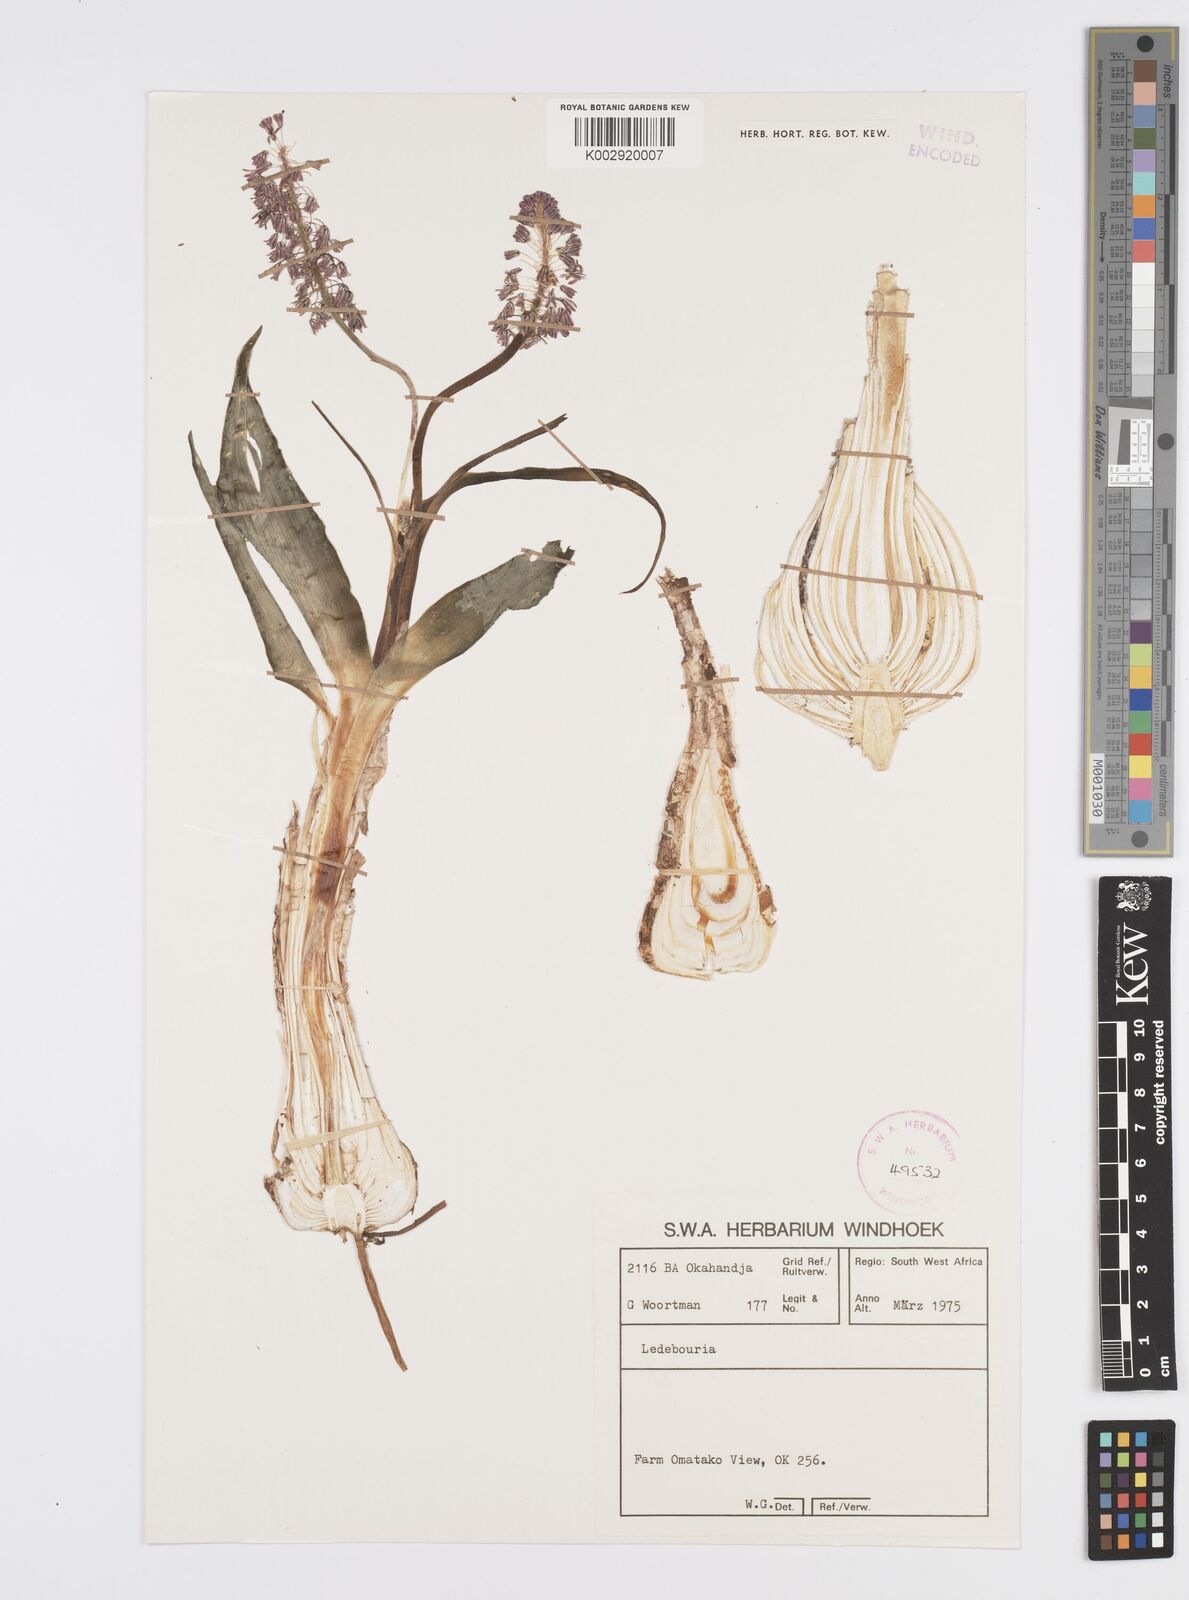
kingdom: Plantae
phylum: Tracheophyta
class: Liliopsida
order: Asparagales
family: Asparagaceae
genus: Ledebouria
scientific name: Ledebouria
